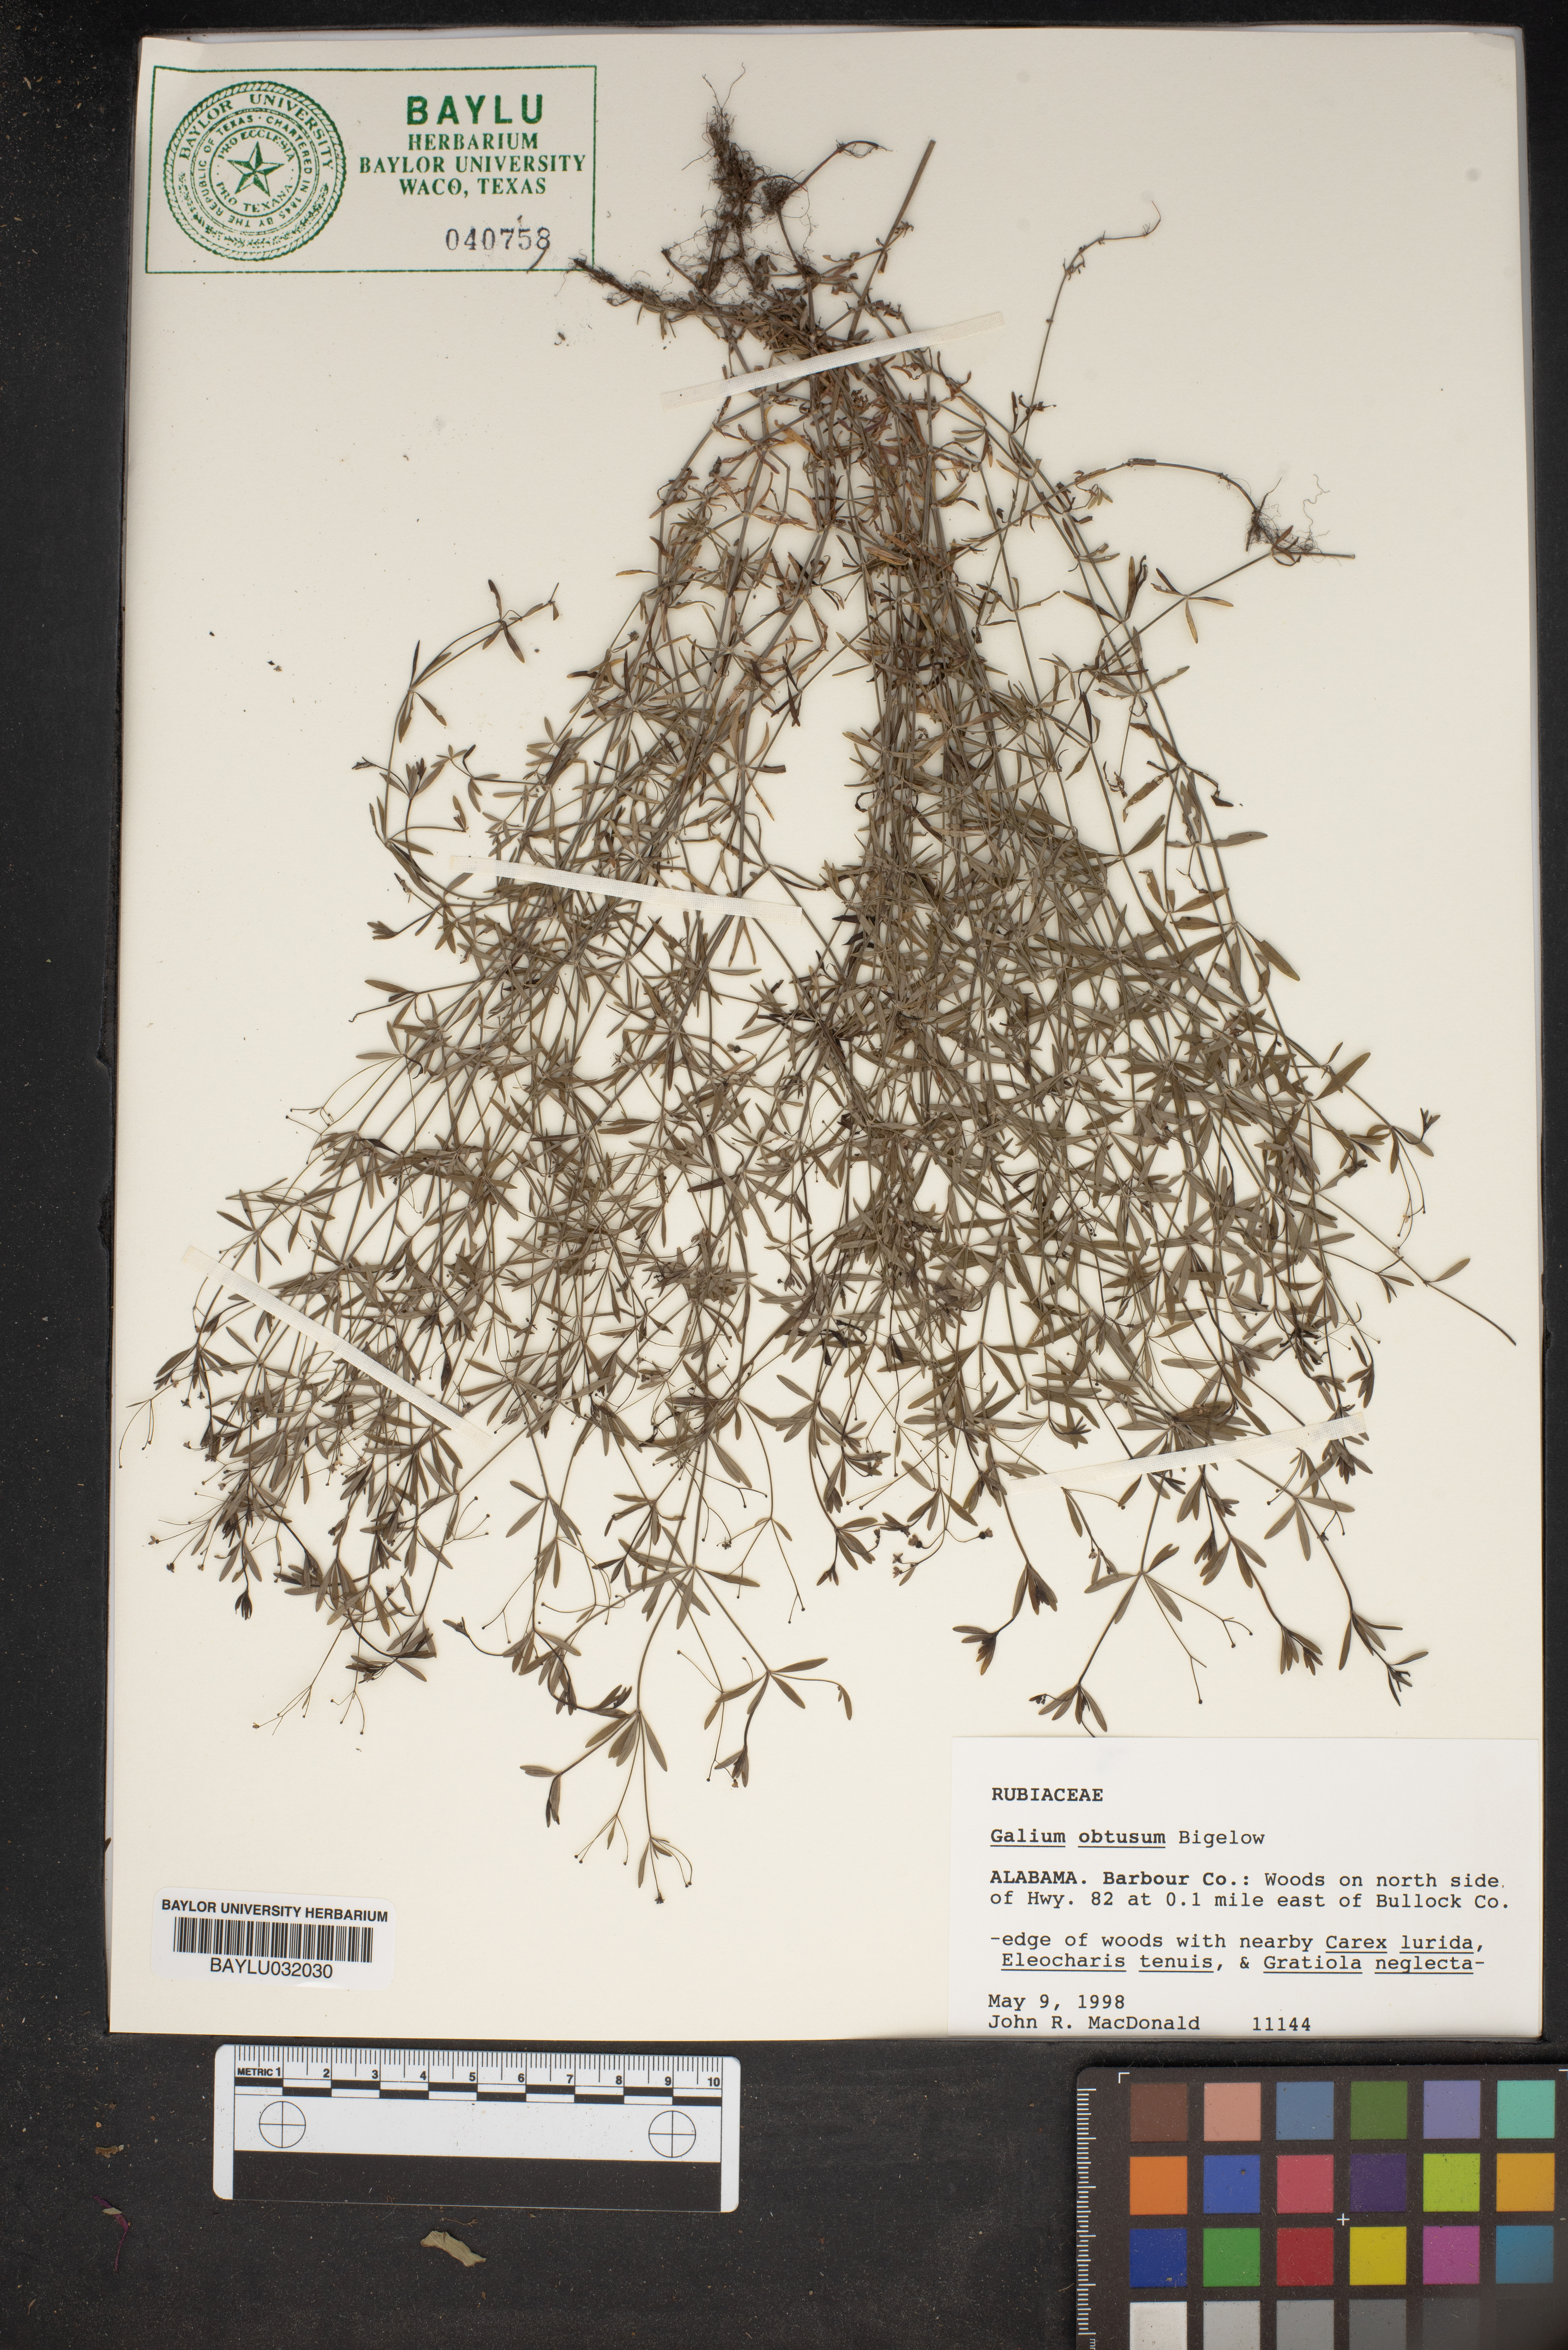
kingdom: Plantae
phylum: Tracheophyta
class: Magnoliopsida
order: Gentianales
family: Rubiaceae
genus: Galium
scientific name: Galium obtusum
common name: Blunt-leaved bedstraw
